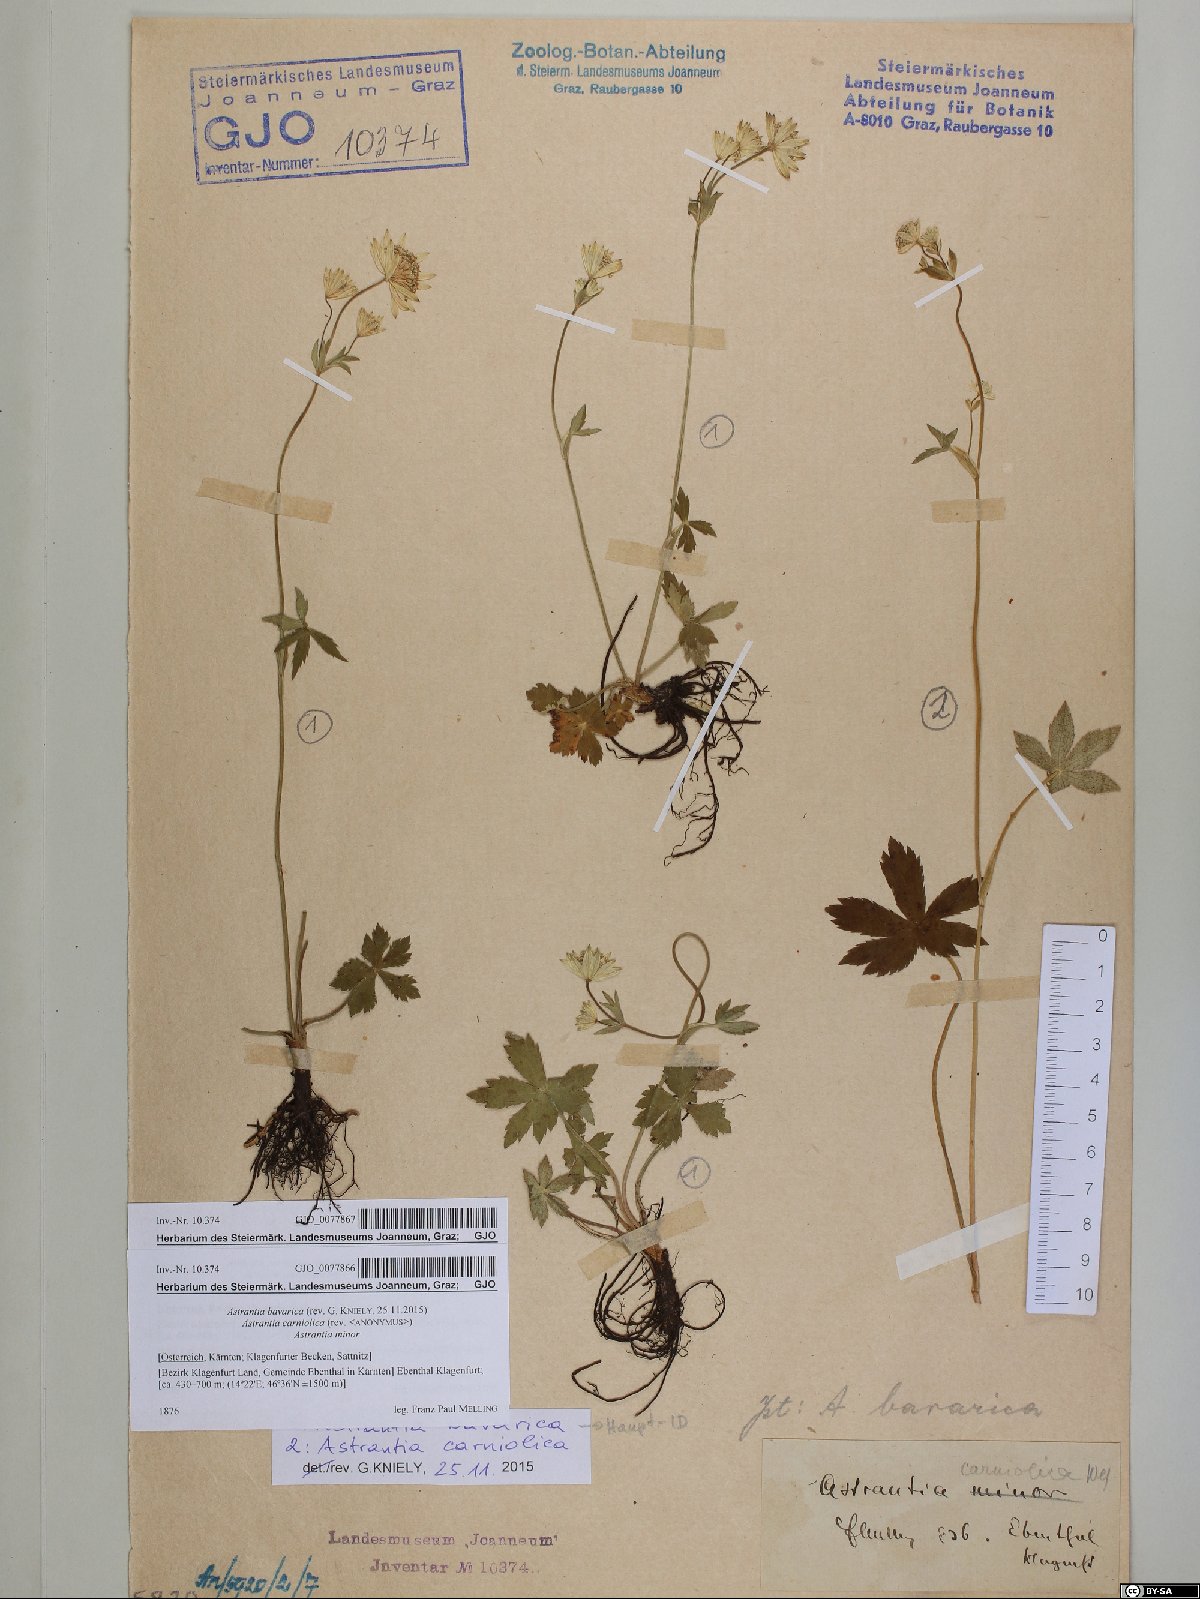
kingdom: Plantae
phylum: Tracheophyta
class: Magnoliopsida
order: Apiales
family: Apiaceae
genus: Astrantia
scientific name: Astrantia carniolica
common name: Carnic masterwort
